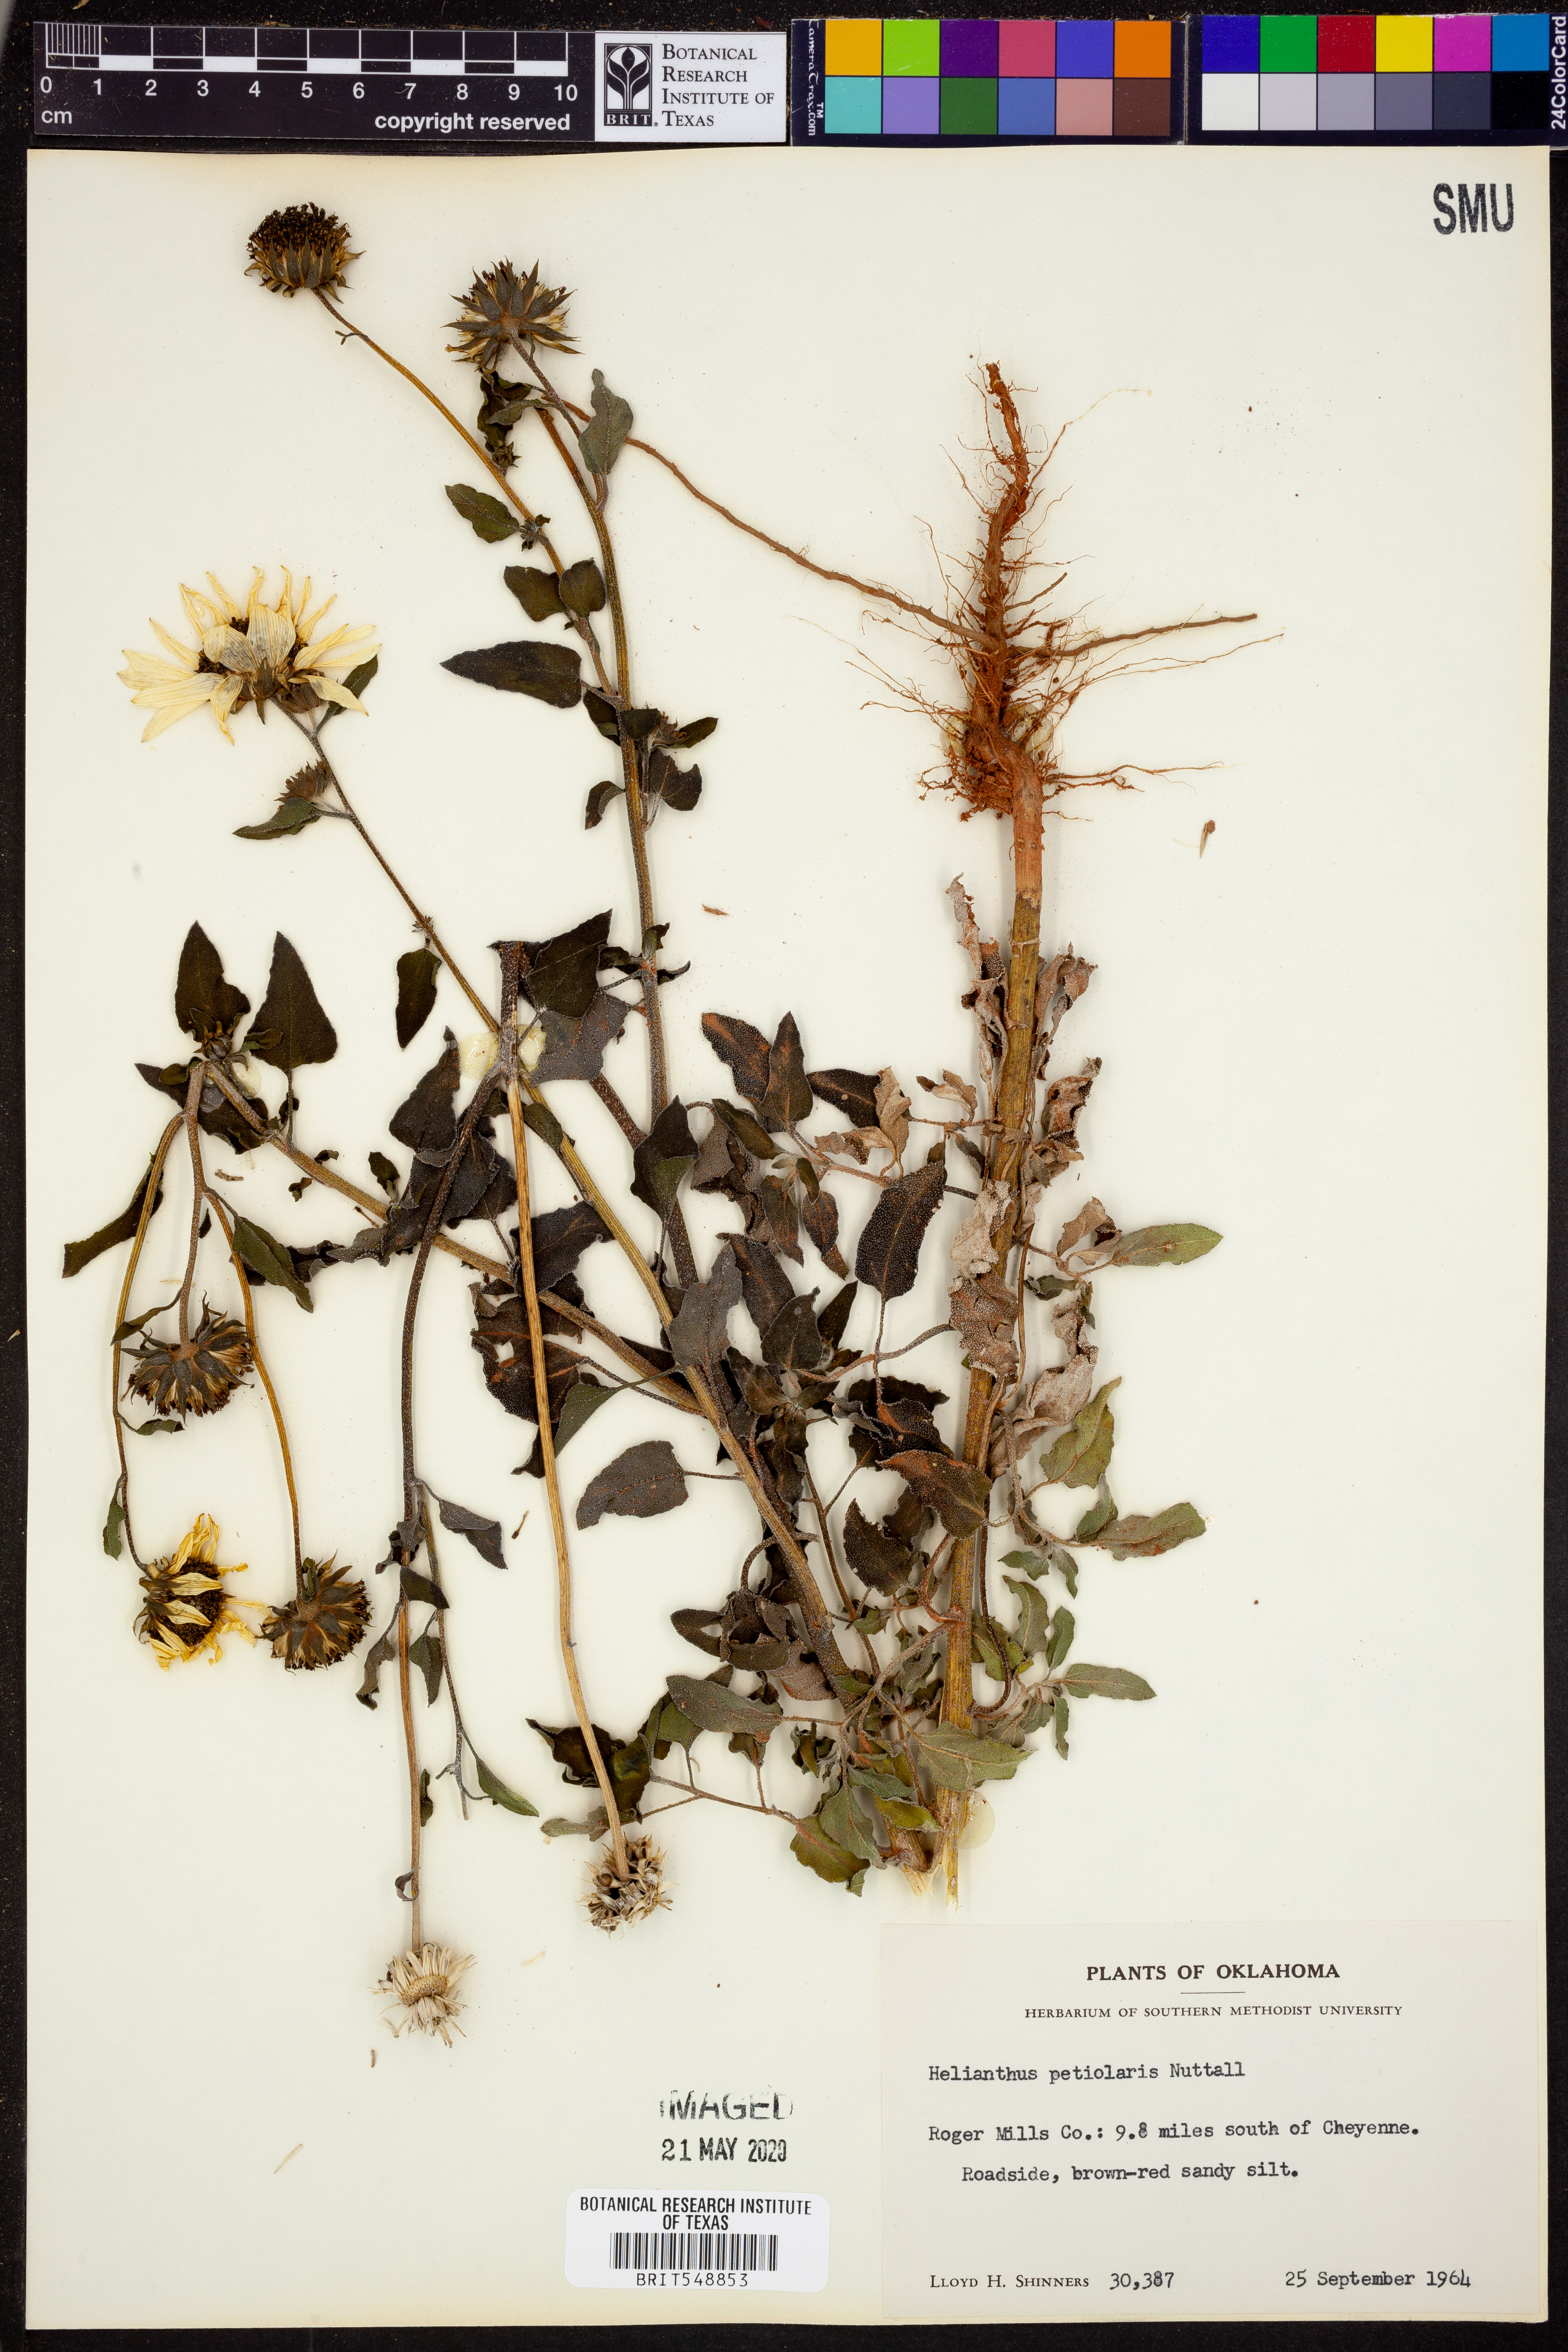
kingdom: Plantae
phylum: Tracheophyta
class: Magnoliopsida
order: Asterales
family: Asteraceae
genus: Helianthus
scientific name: Helianthus petiolaris
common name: Lesser sunflower
